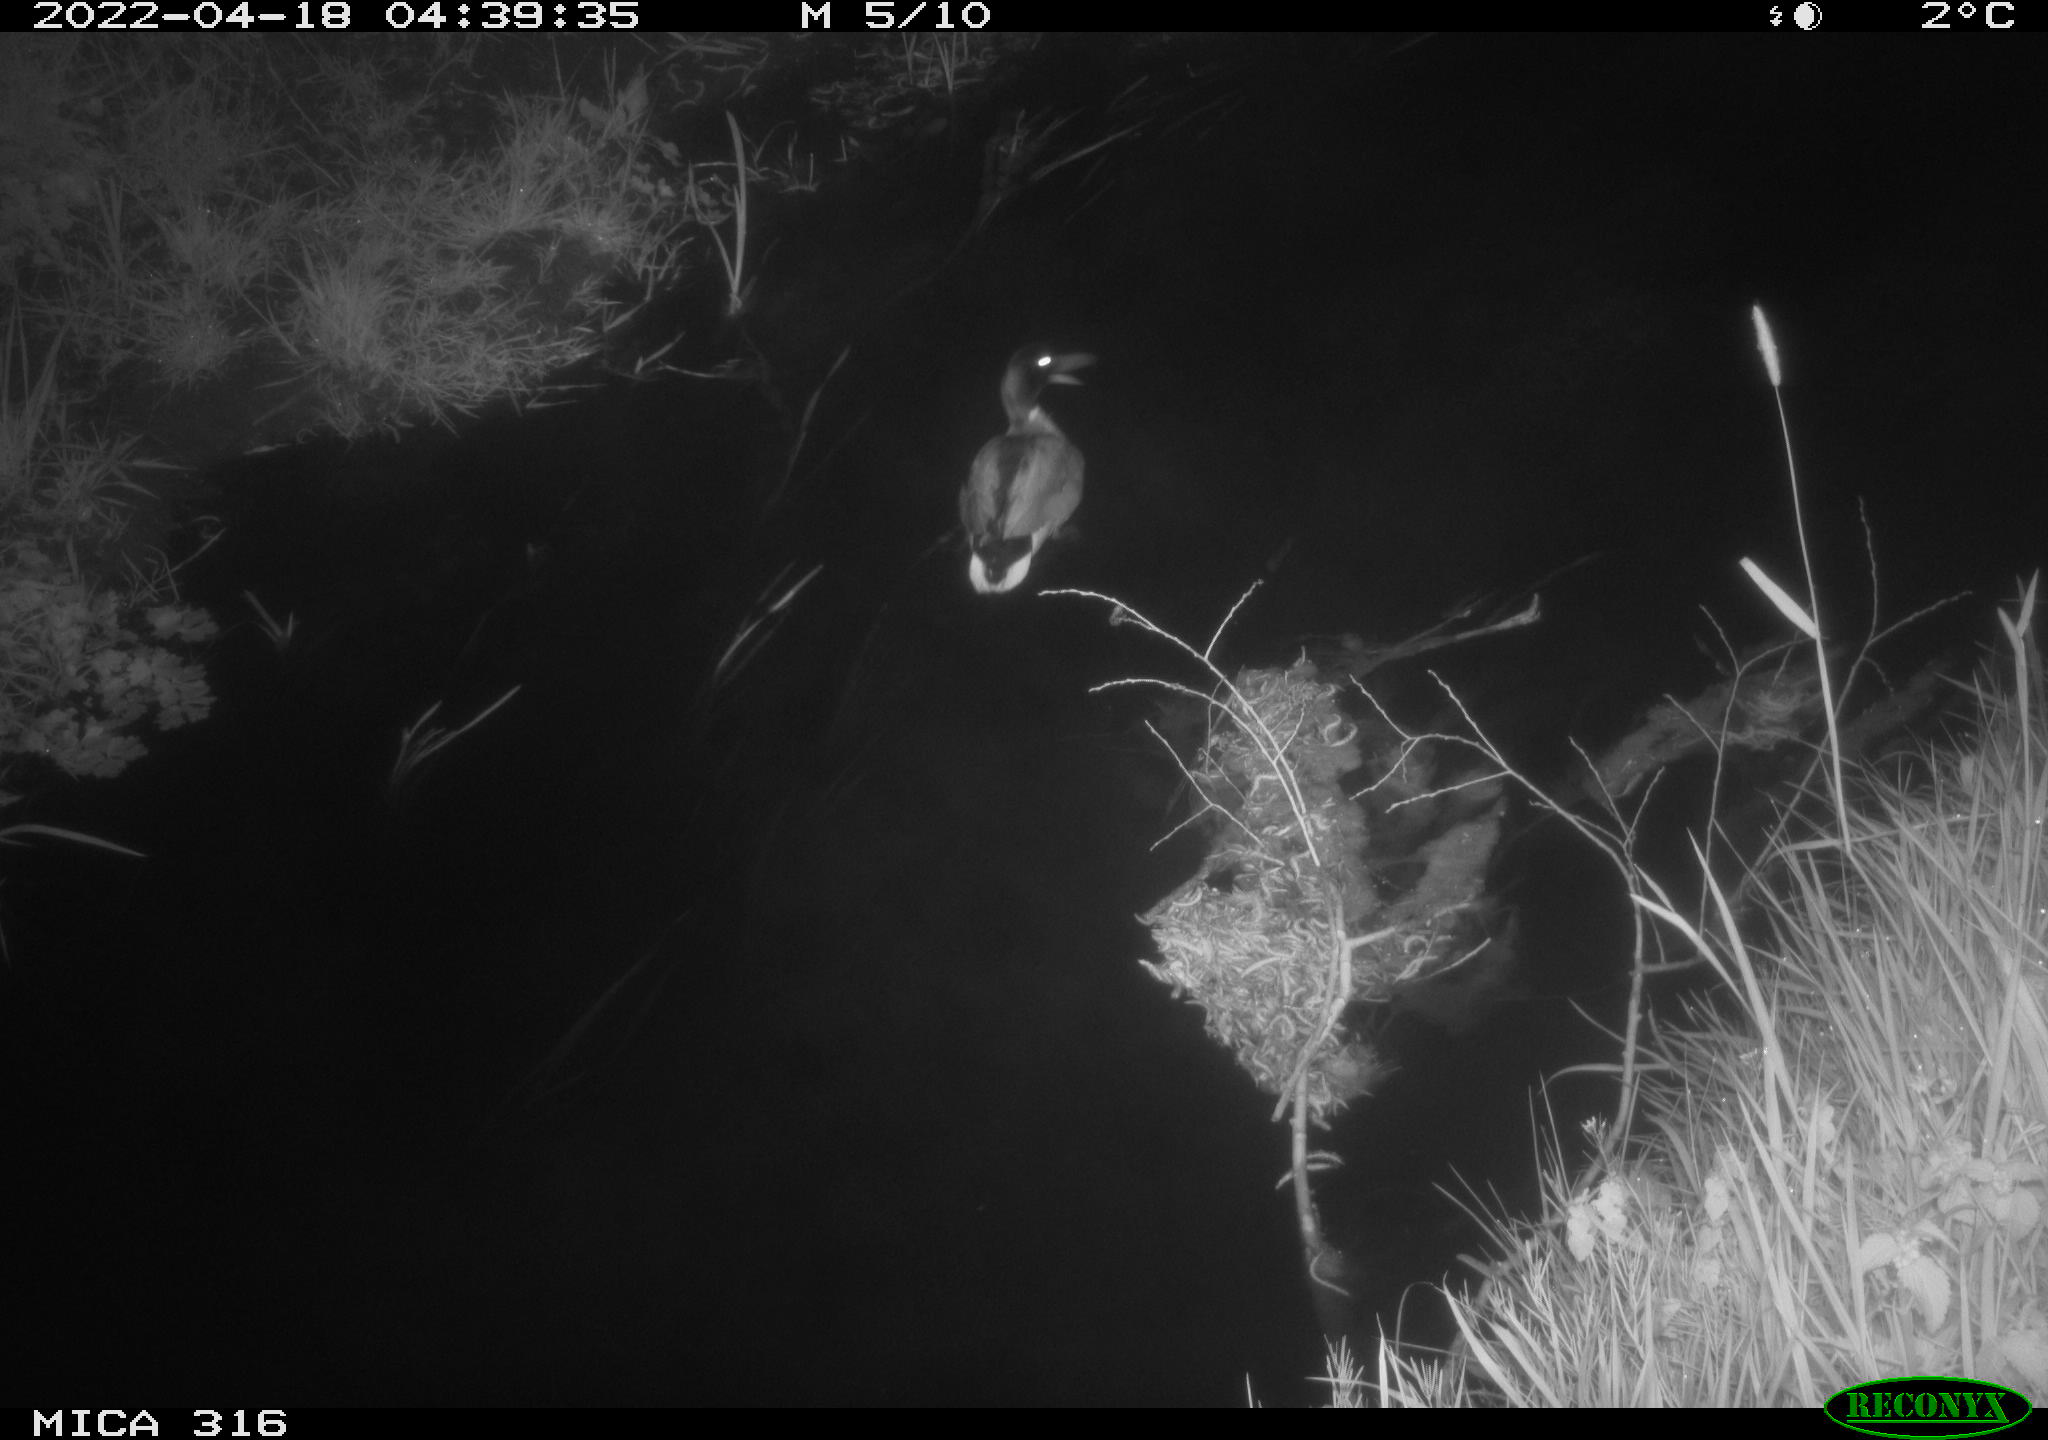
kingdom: Animalia
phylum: Chordata
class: Aves
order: Anseriformes
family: Anatidae
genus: Anas
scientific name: Anas platyrhynchos
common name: Mallard
